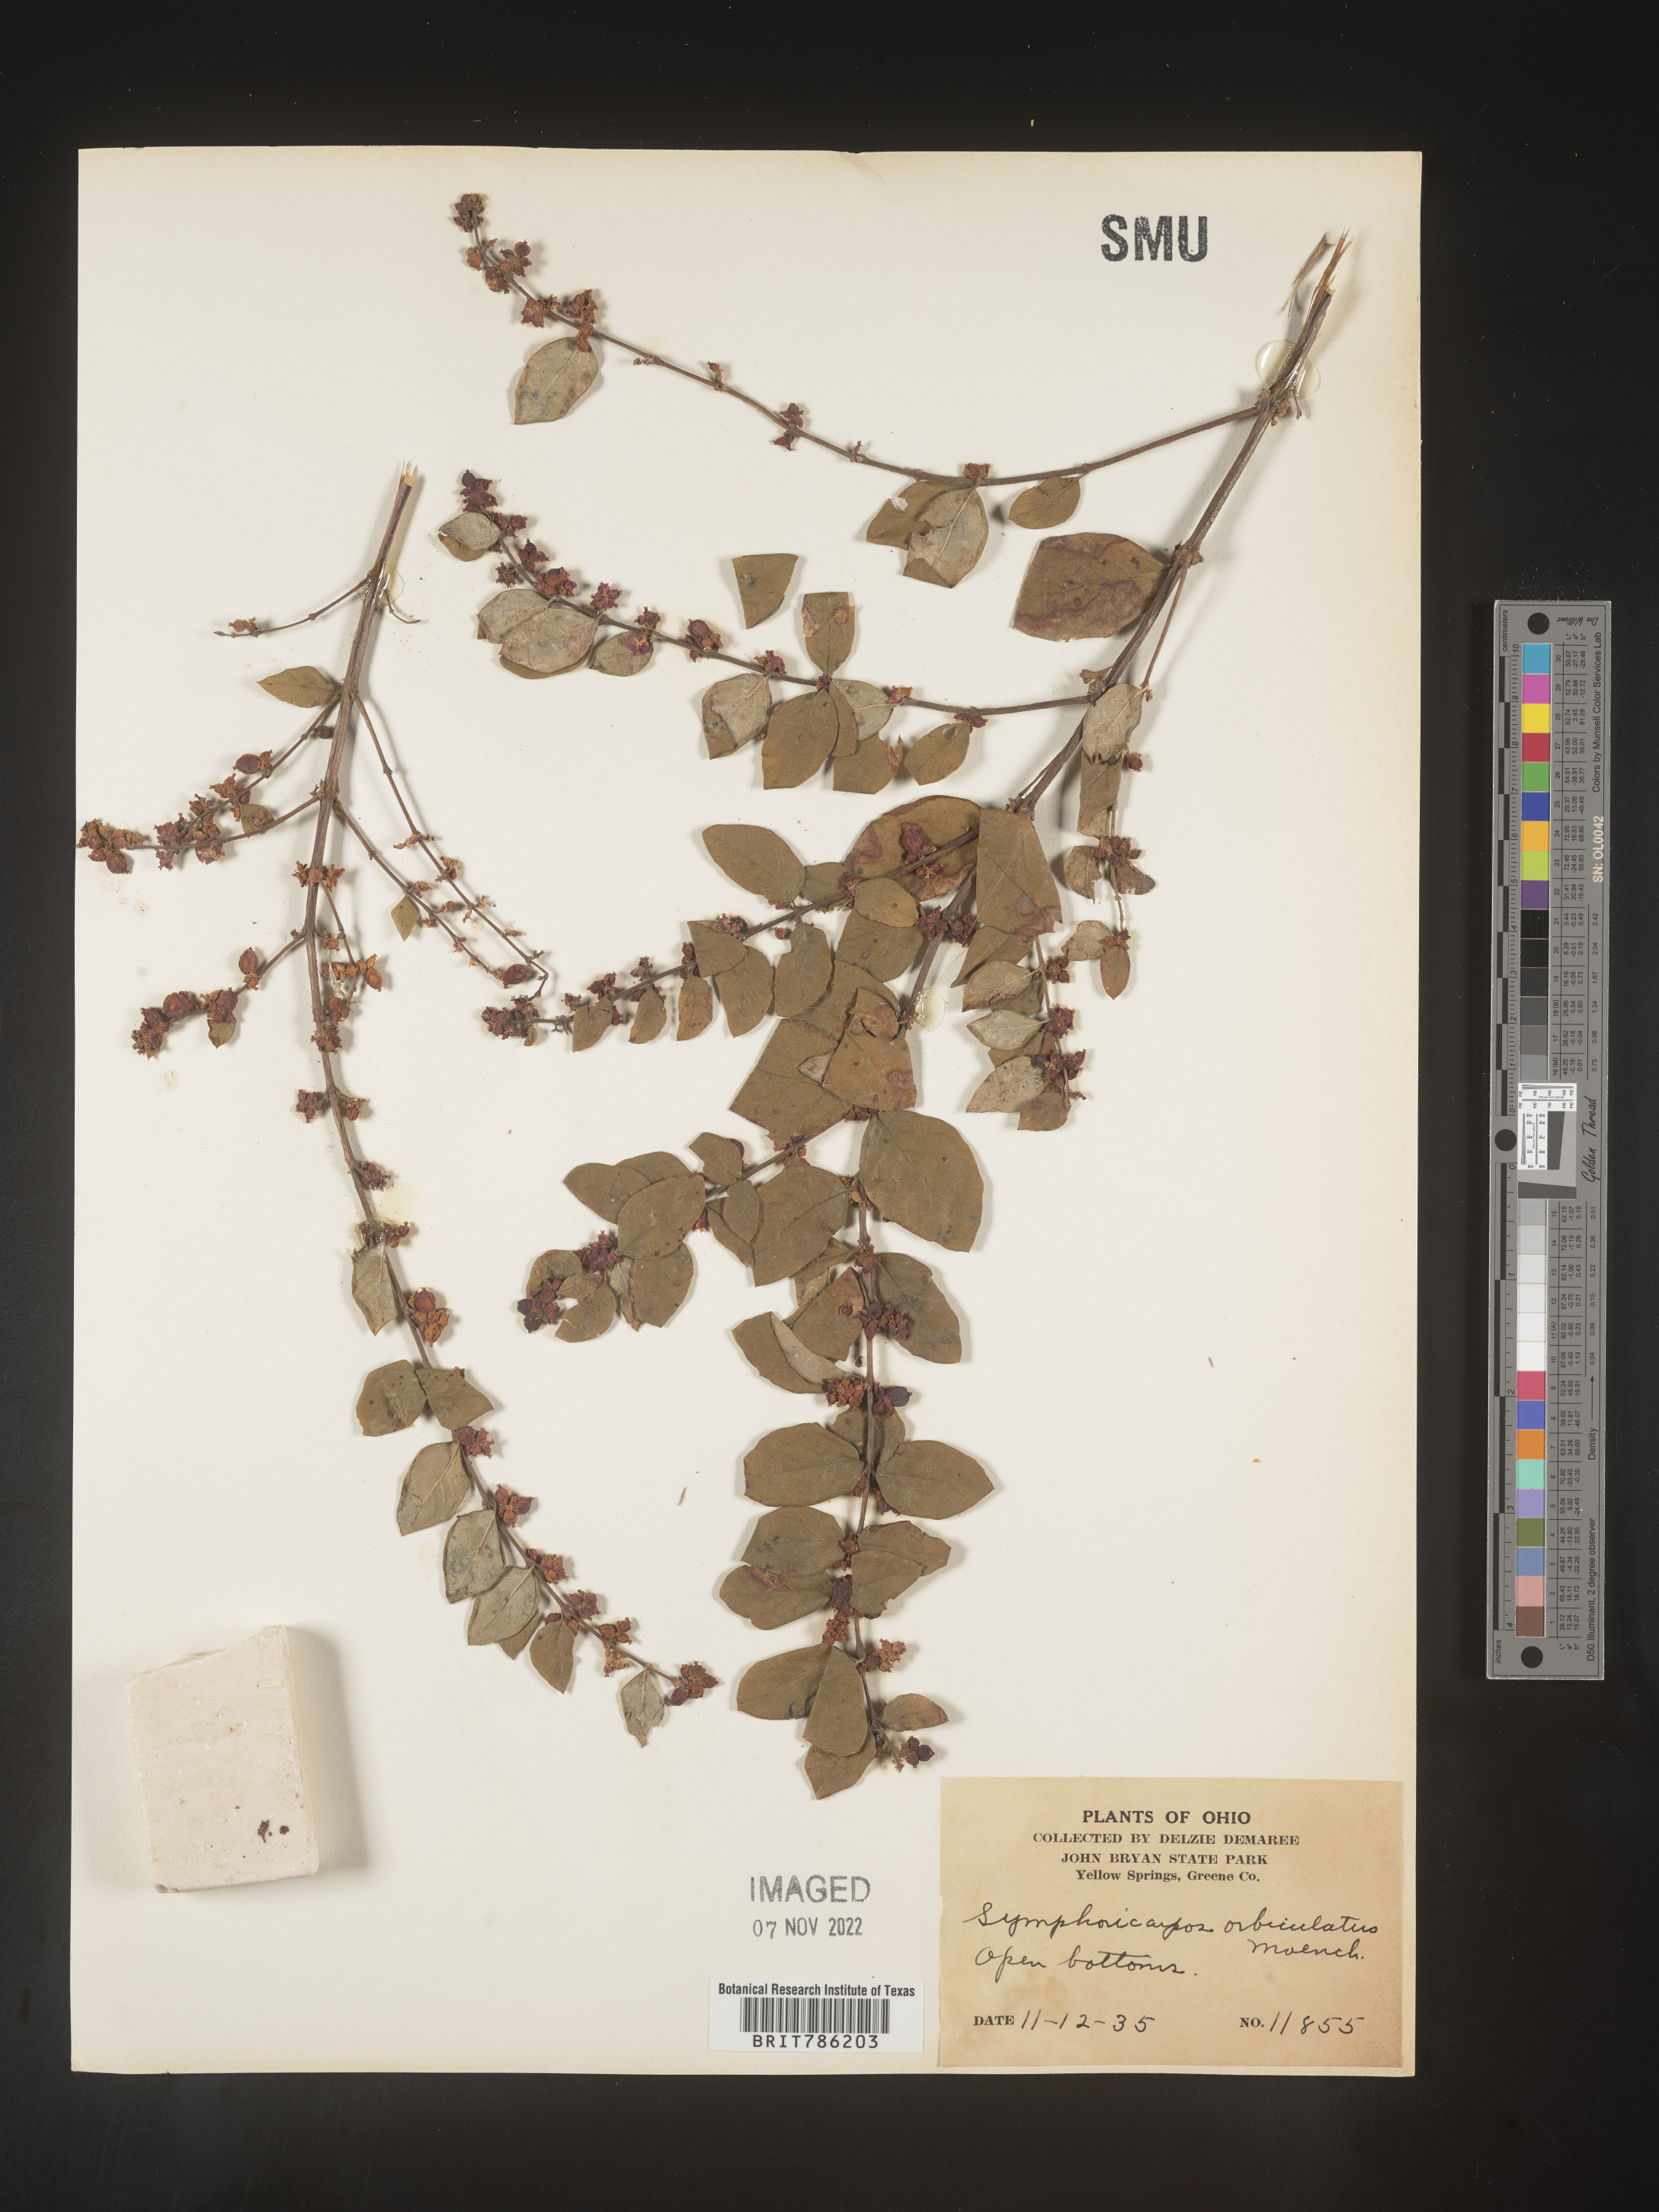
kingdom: Plantae
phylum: Tracheophyta
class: Magnoliopsida
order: Dipsacales
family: Caprifoliaceae
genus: Symphoricarpos
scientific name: Symphoricarpos orbiculatus
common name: Coralberry
